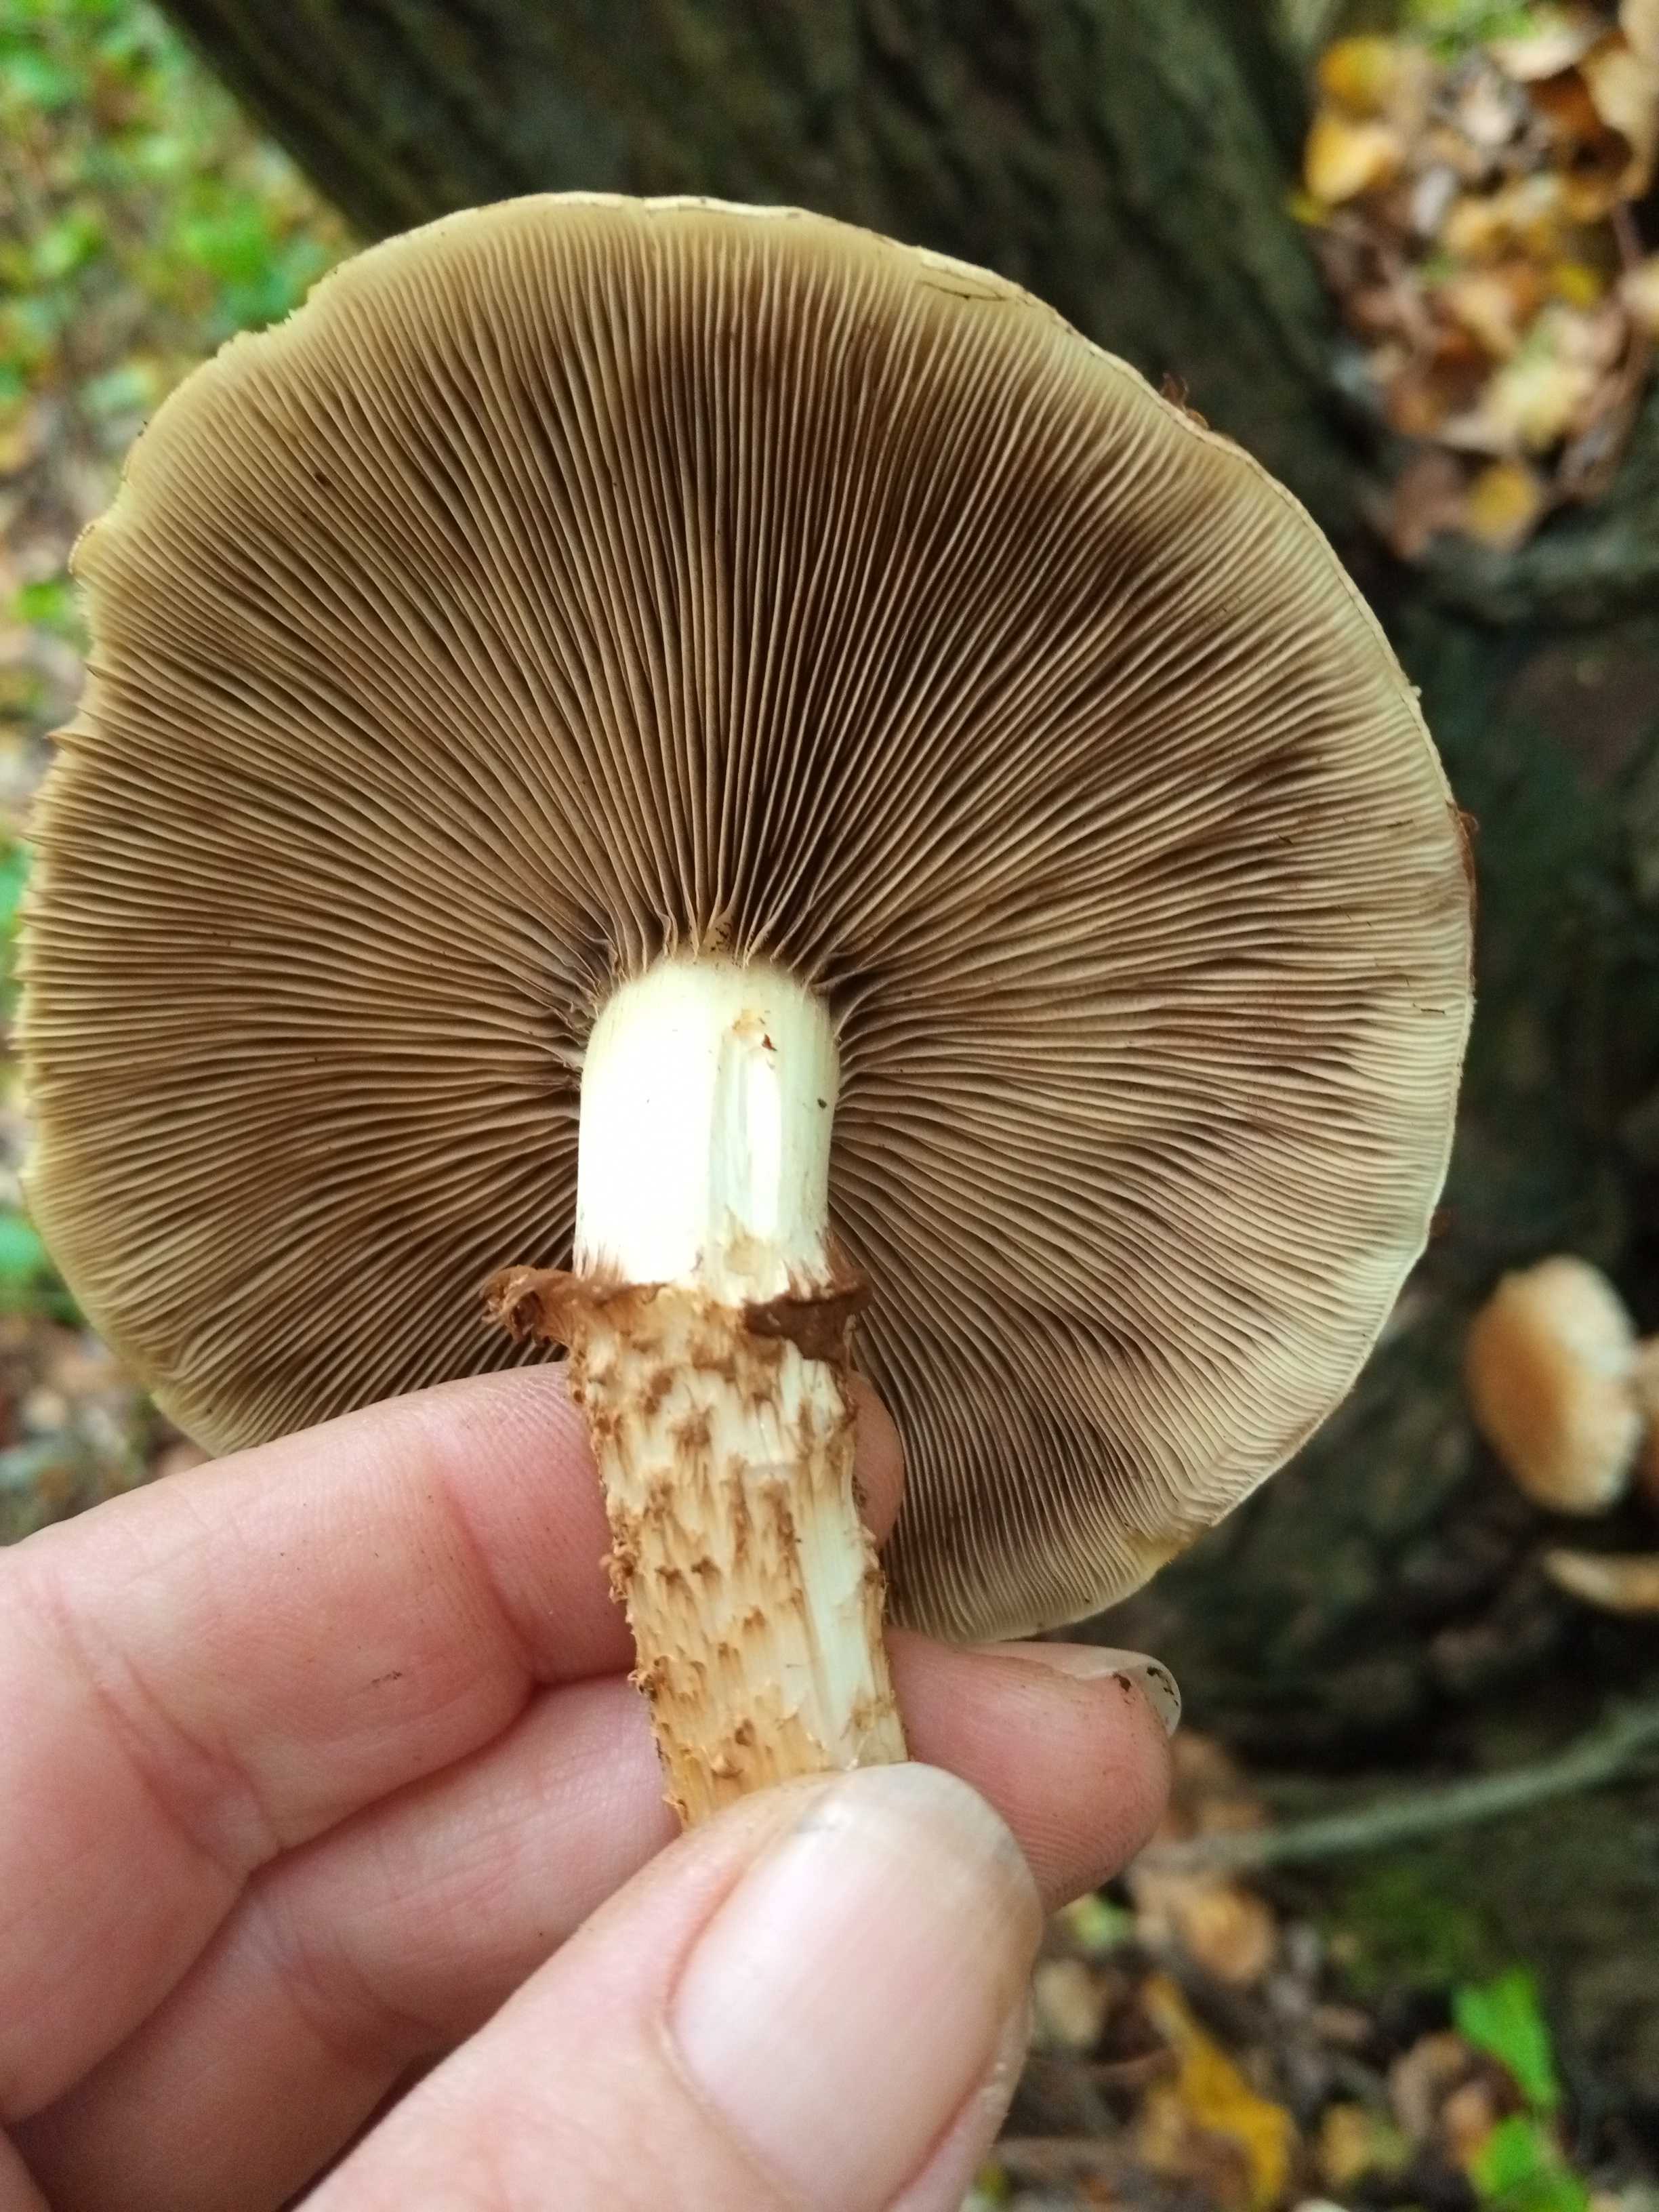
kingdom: Fungi
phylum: Basidiomycota
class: Agaricomycetes
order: Agaricales
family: Strophariaceae
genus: Pholiota
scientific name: Pholiota squarrosa
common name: krumskællet skælhat
